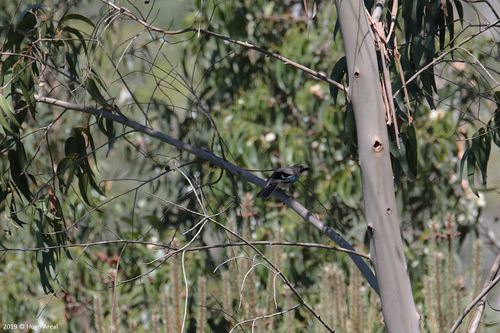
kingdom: Animalia
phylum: Chordata
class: Aves
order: Passeriformes
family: Corvidae
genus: Garrulus
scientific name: Garrulus glandarius
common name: Eurasian jay
